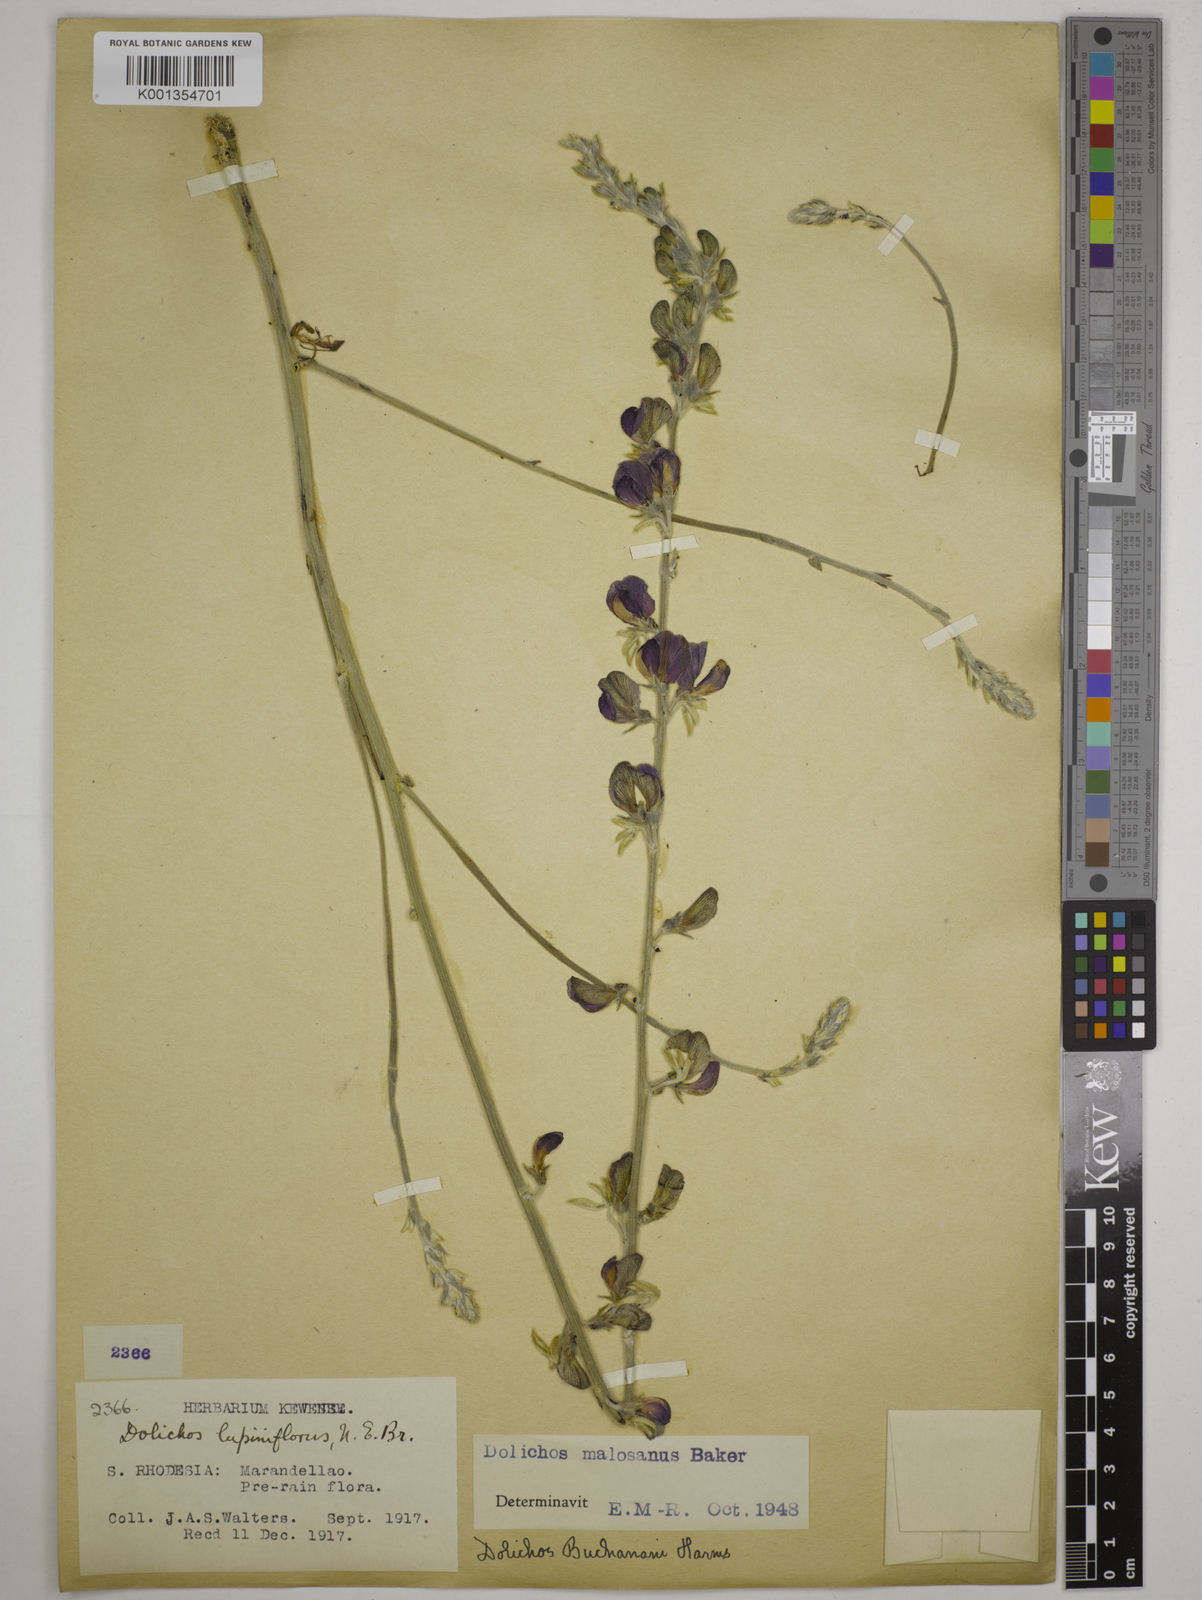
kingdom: Plantae
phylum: Tracheophyta
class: Magnoliopsida
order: Fabales
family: Fabaceae
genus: Dolichos
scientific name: Dolichos kilimandscharicus
